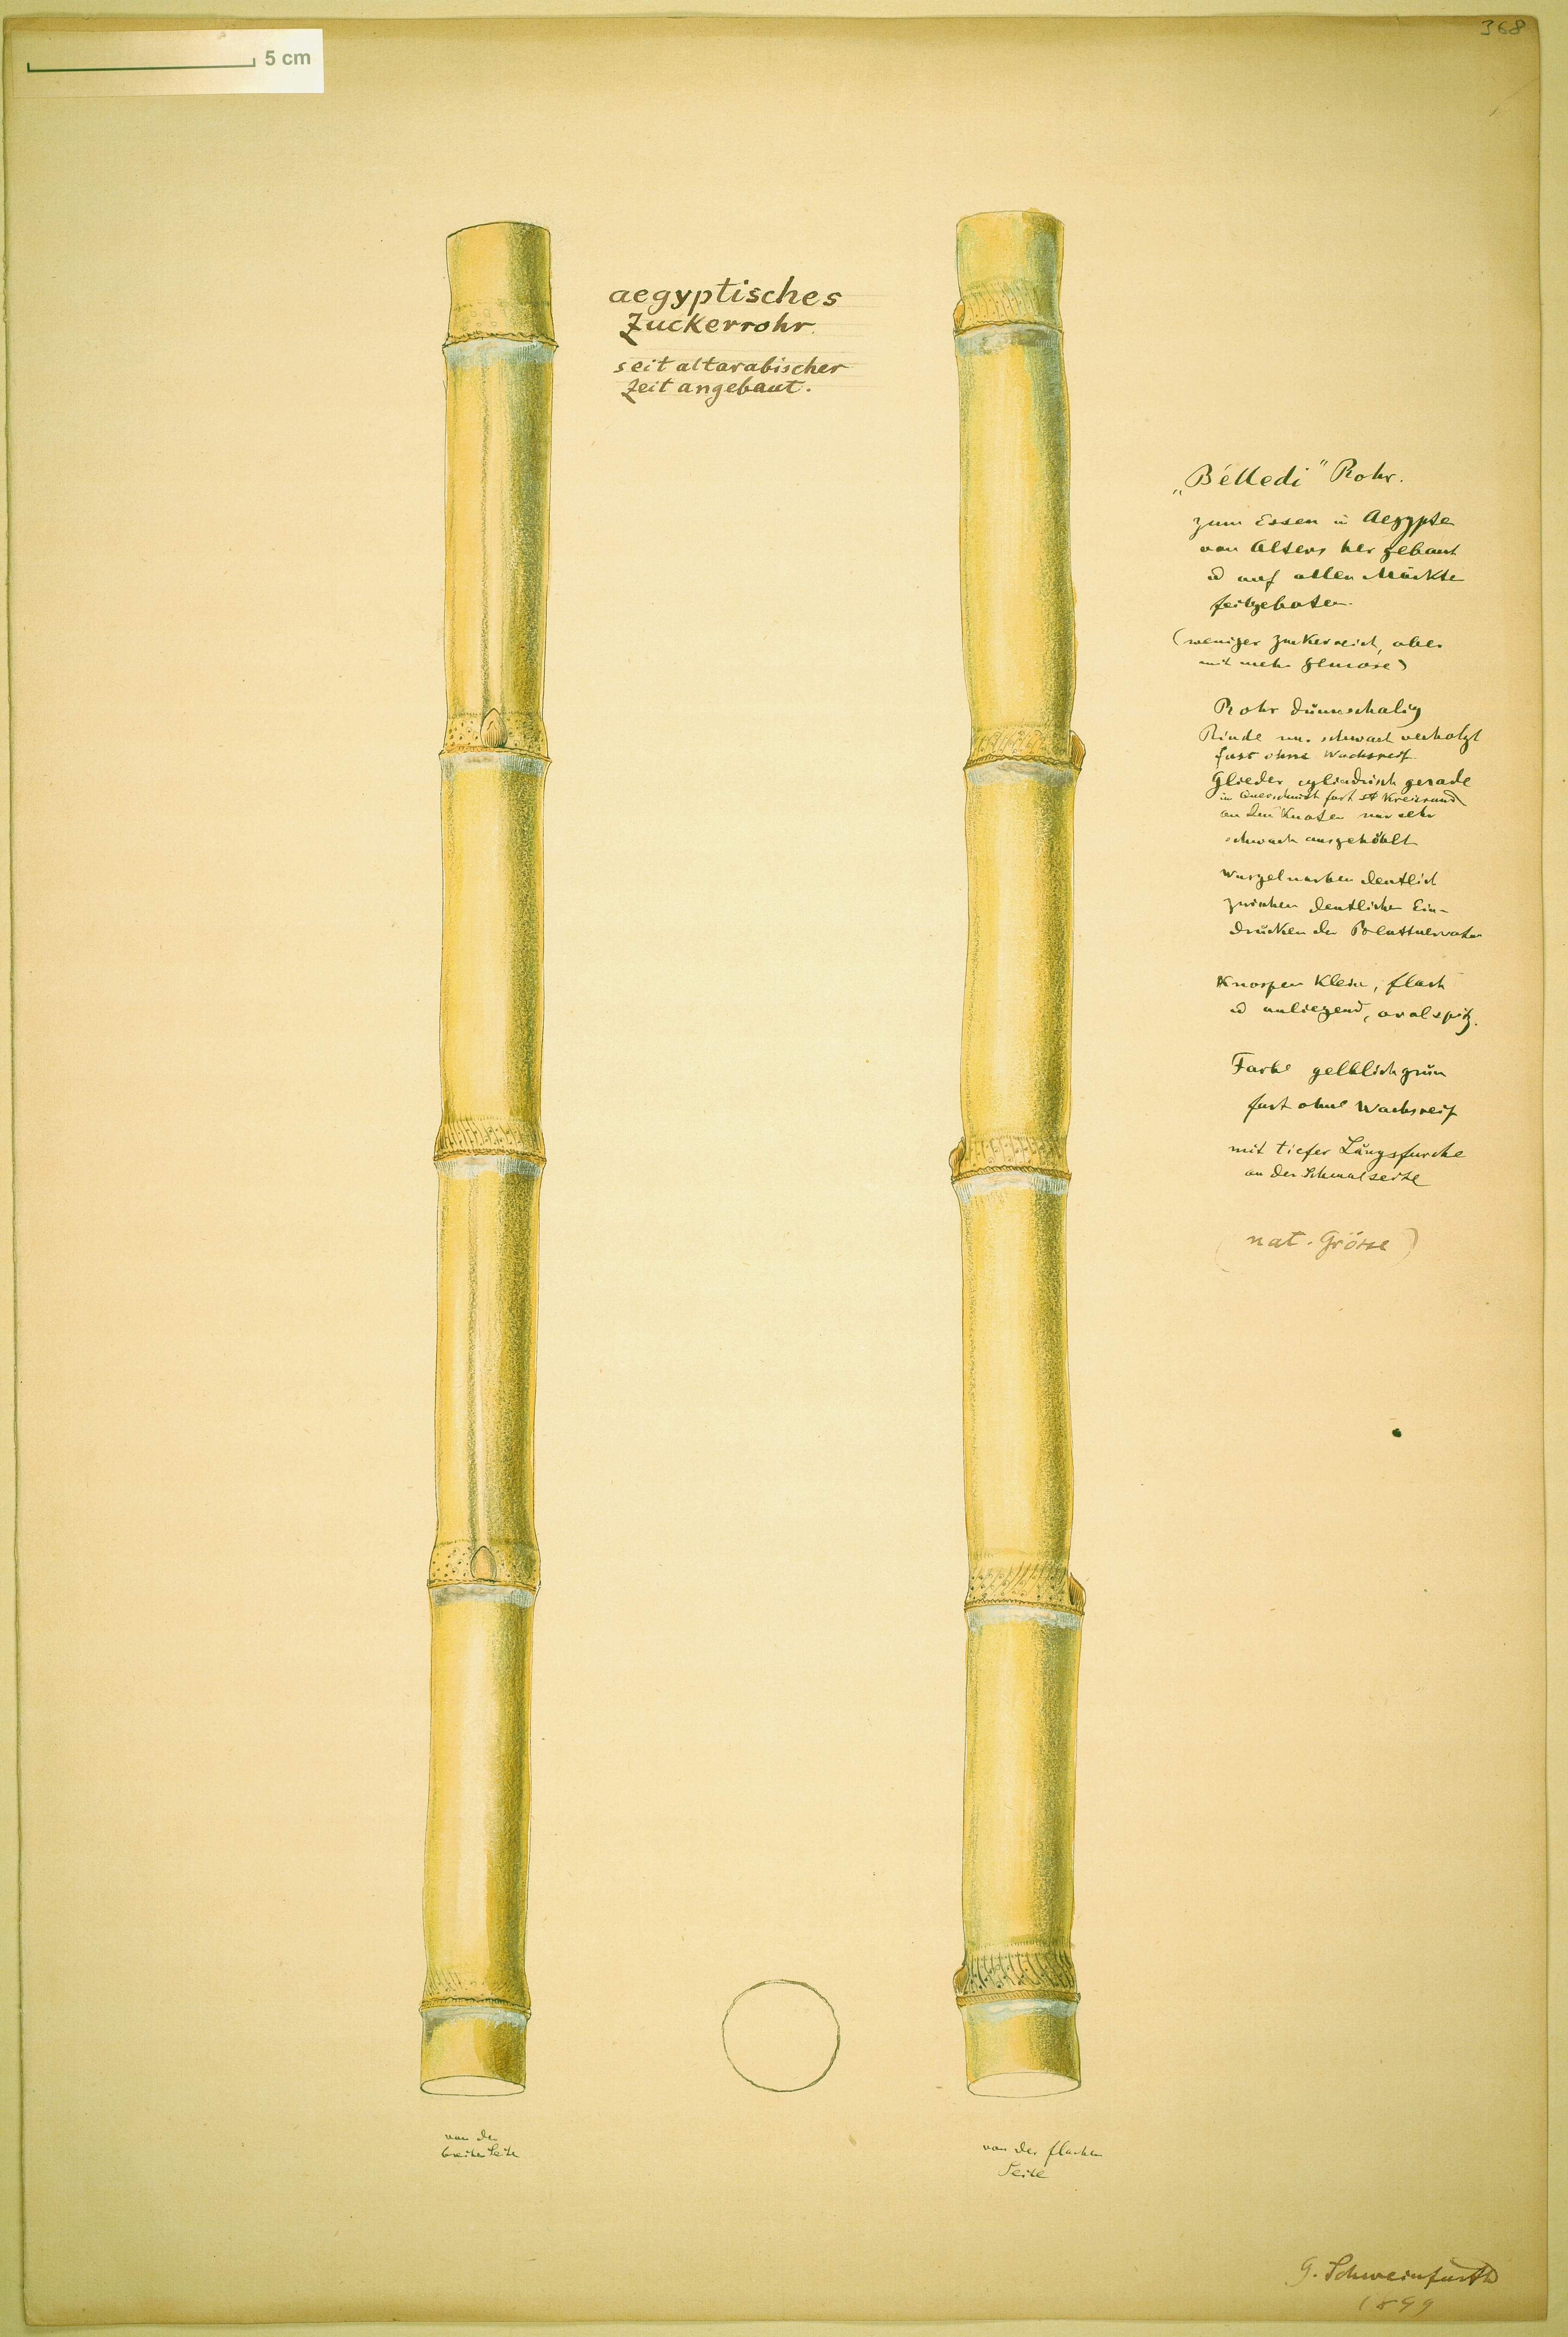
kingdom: Plantae
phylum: Tracheophyta
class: Liliopsida
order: Poales
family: Poaceae
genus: Saccharum
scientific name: Saccharum officinarum
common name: Sugarcane
